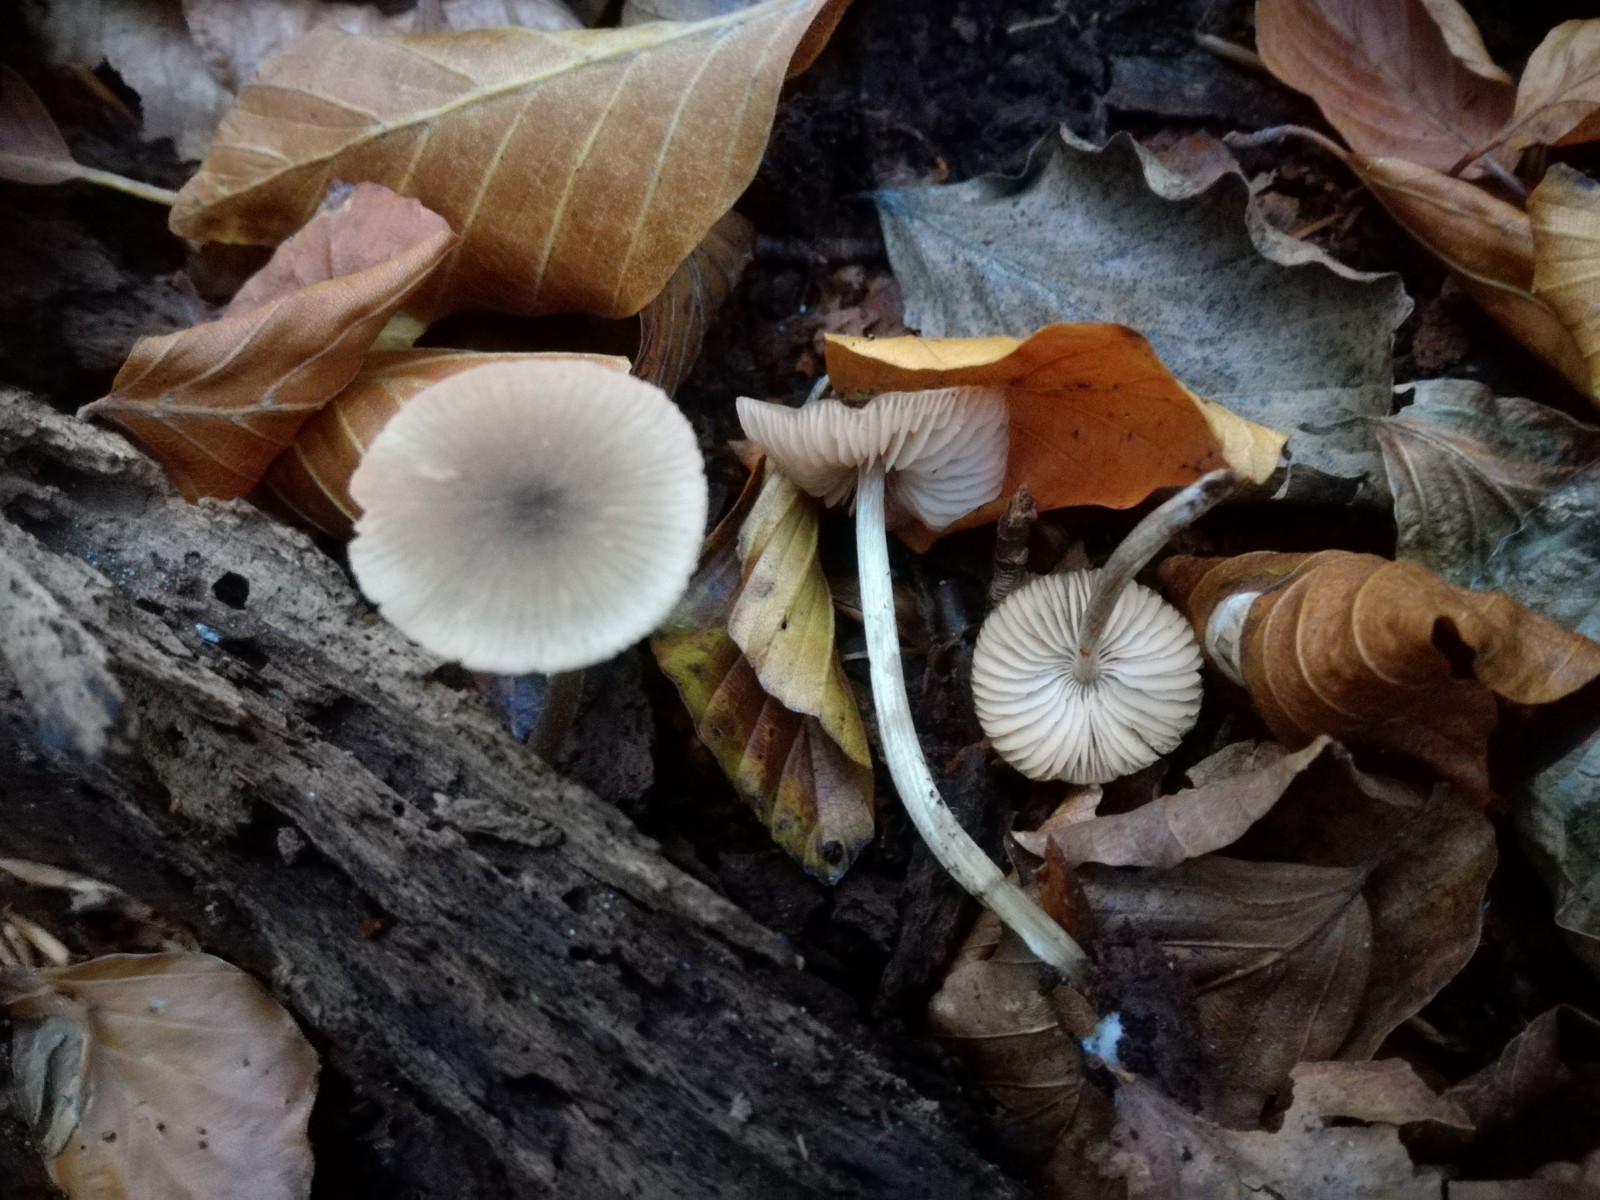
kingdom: Fungi
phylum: Basidiomycota
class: Agaricomycetes
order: Agaricales
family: Entolomataceae
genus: Entoloma
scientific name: Entoloma conferendum
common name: stjernesporet rødblad
